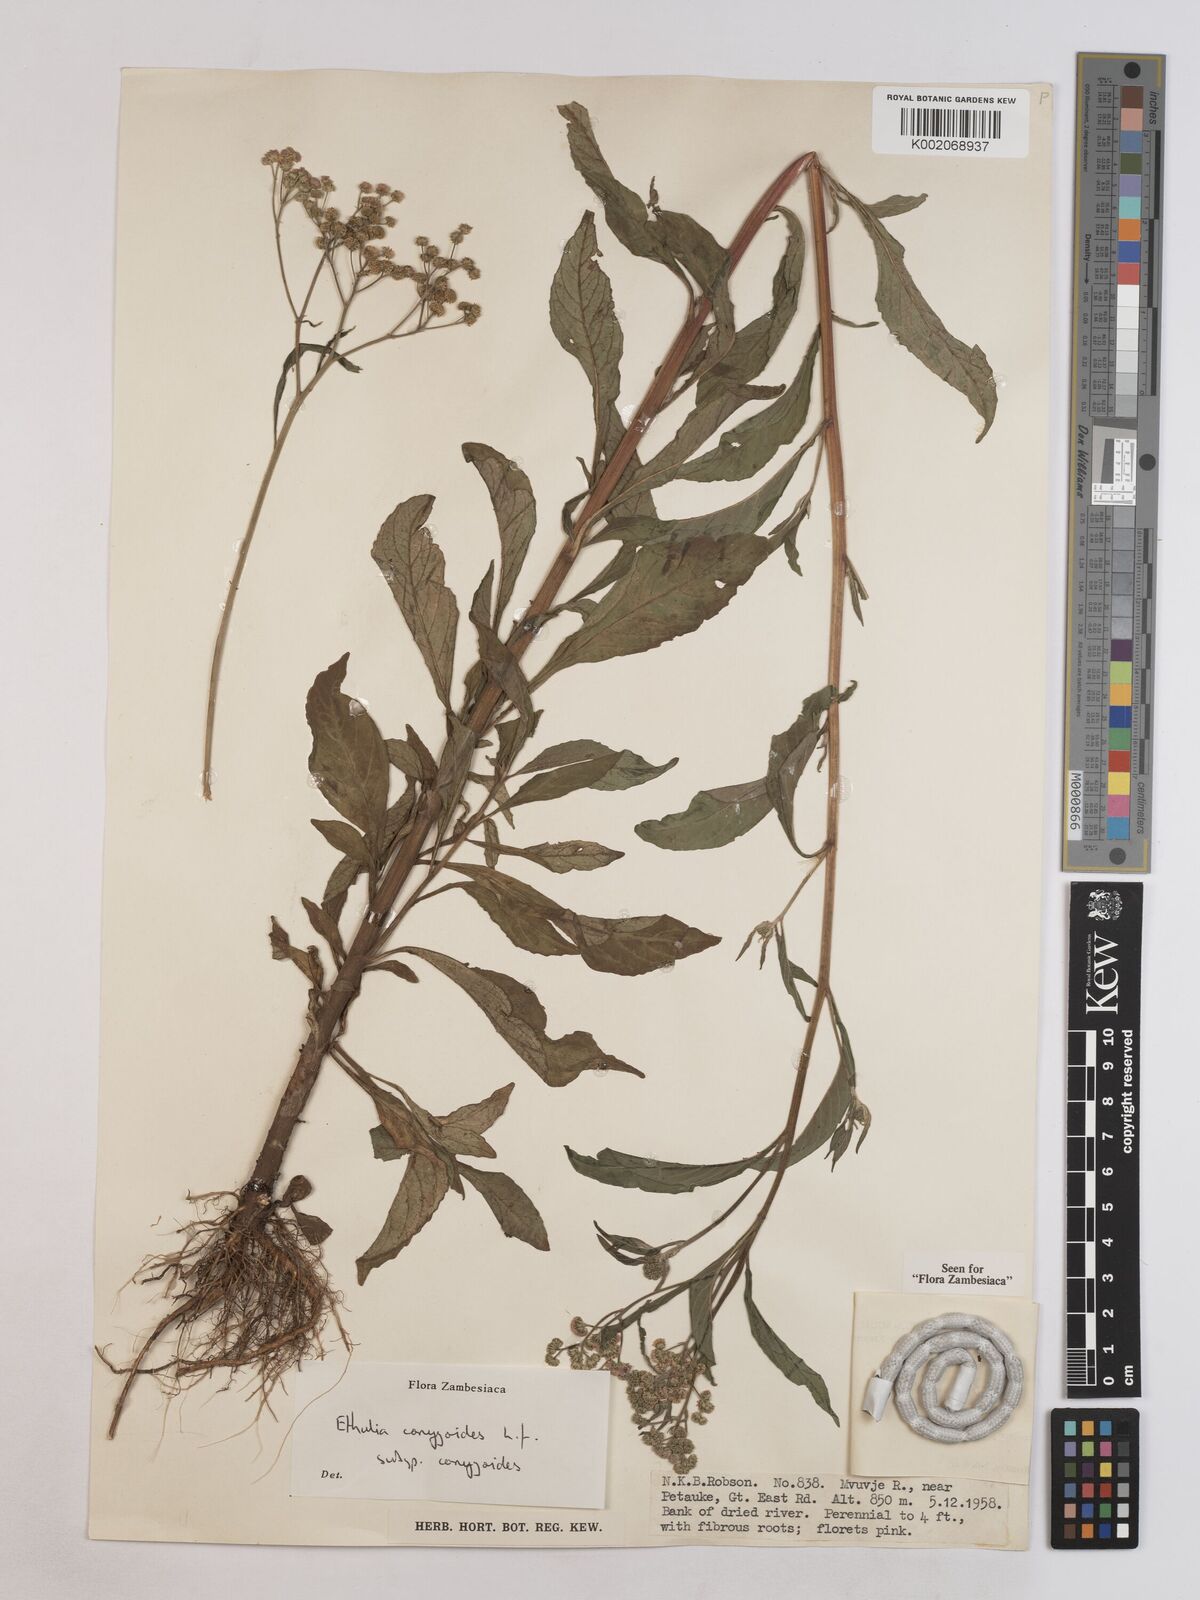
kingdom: Plantae
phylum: Tracheophyta
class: Magnoliopsida
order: Asterales
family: Asteraceae
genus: Ethulia
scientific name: Ethulia conyzoides
